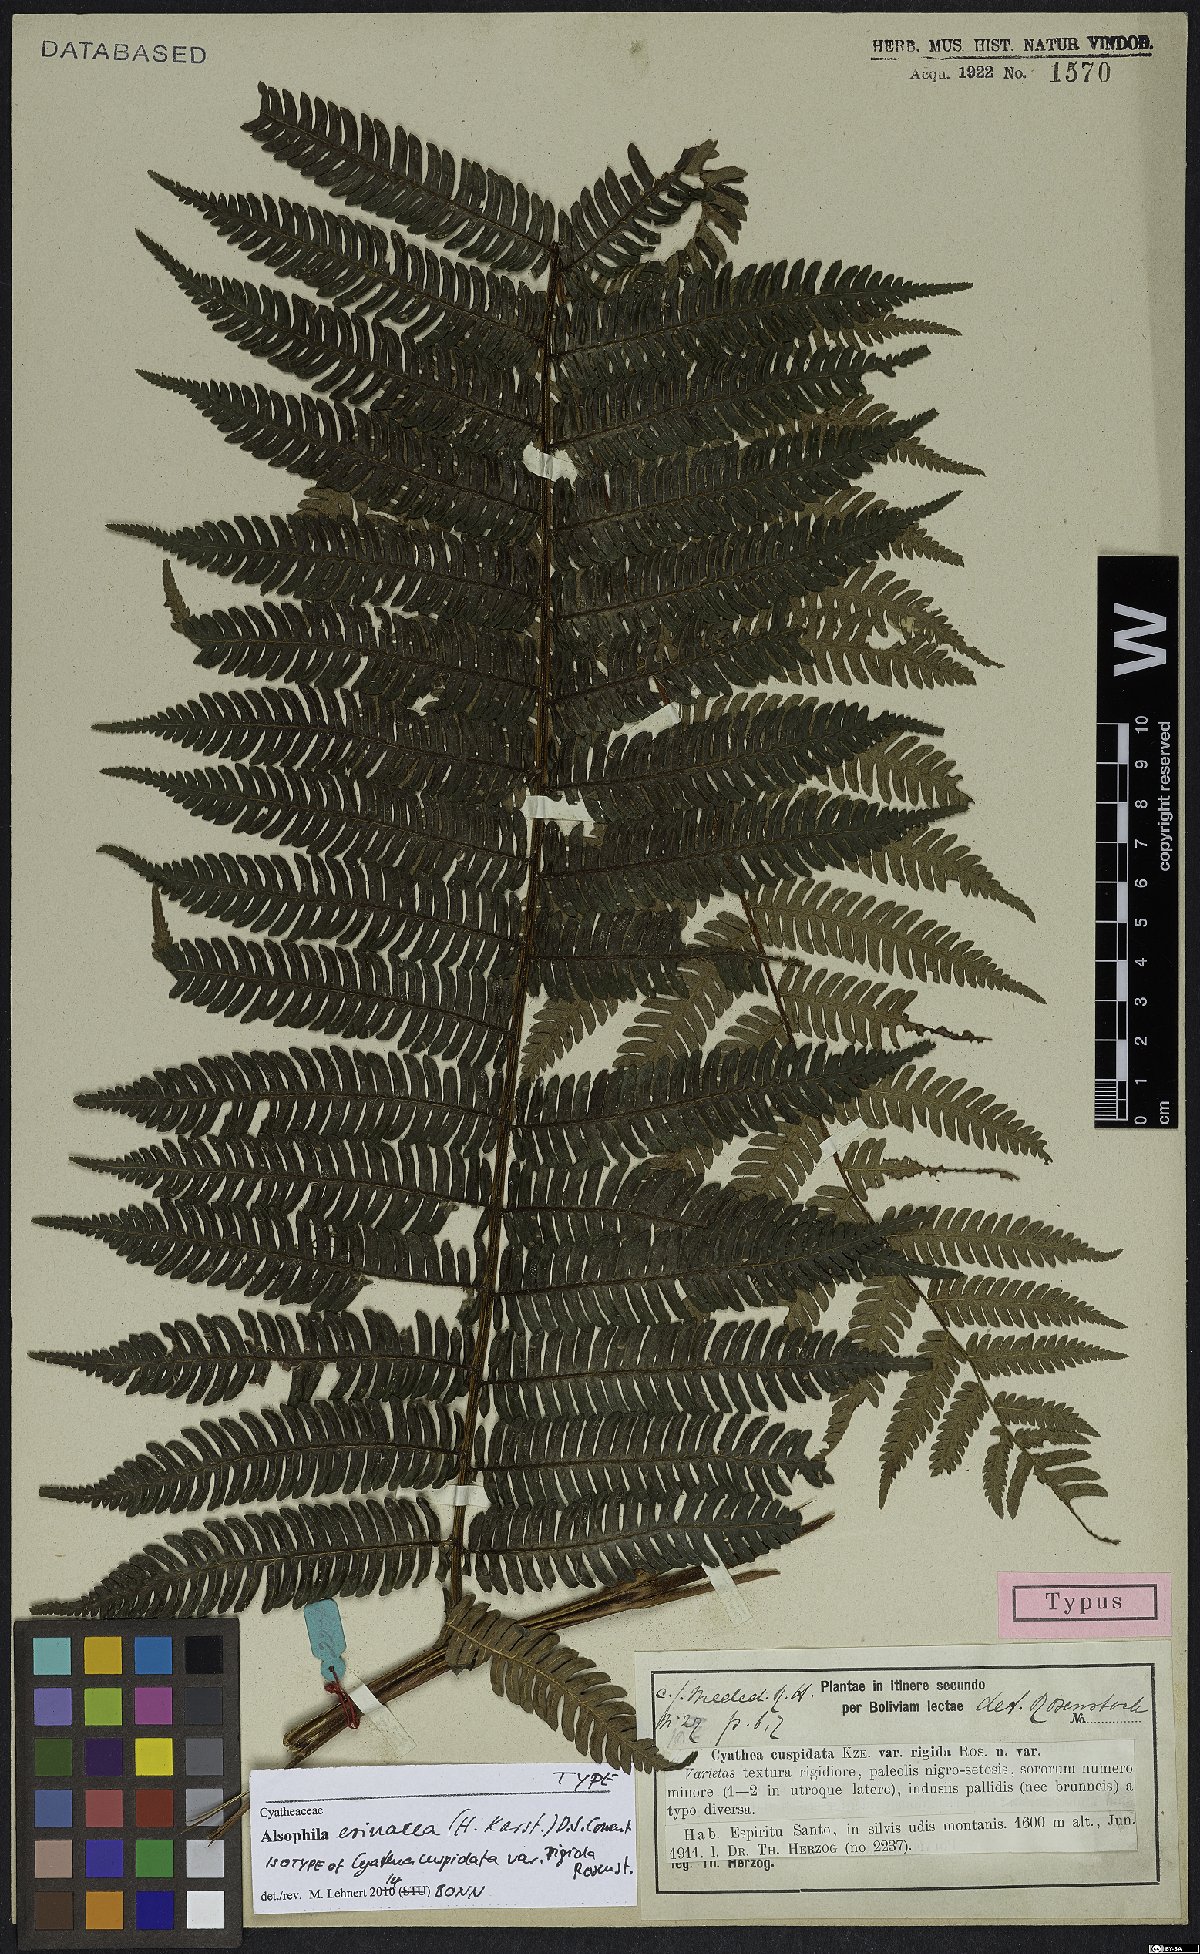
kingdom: Plantae
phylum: Tracheophyta
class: Polypodiopsida
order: Cyatheales
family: Cyatheaceae
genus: Alsophila
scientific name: Alsophila erinacea
